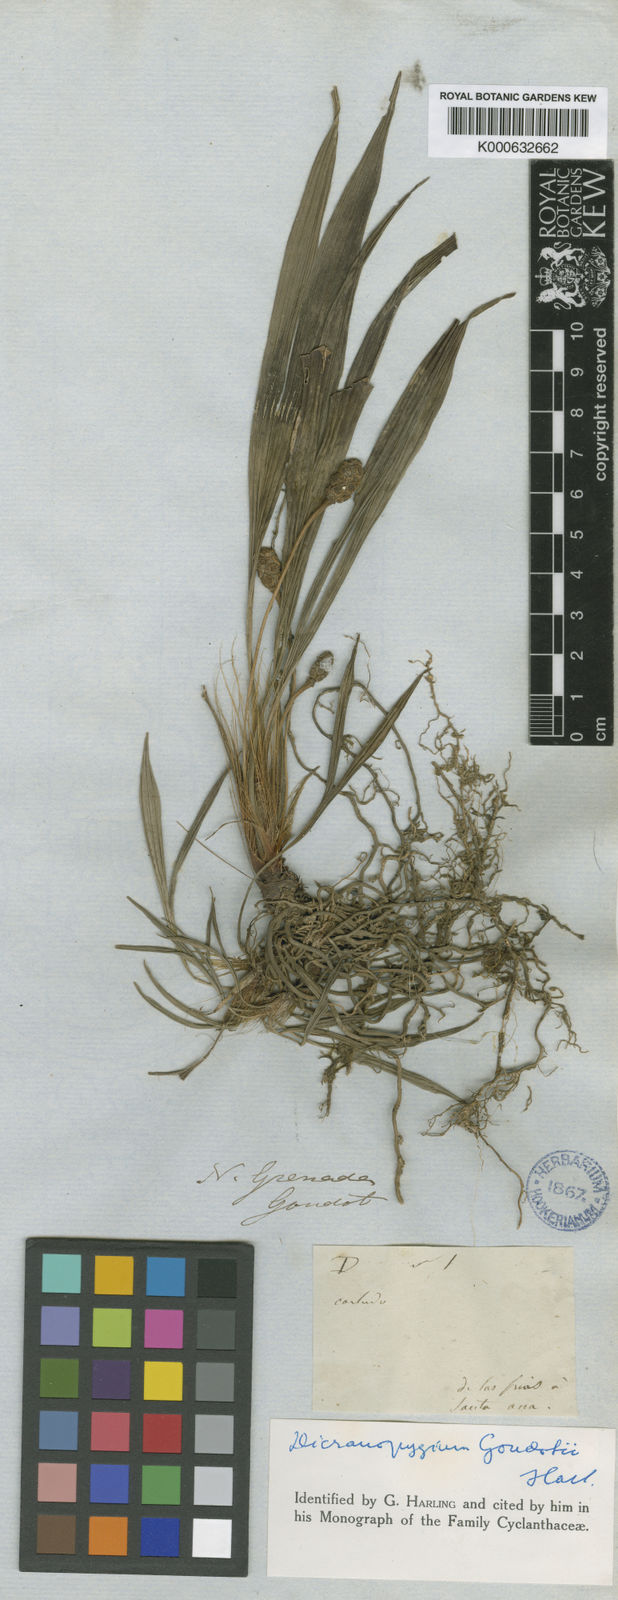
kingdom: Plantae
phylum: Tracheophyta
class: Liliopsida
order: Pandanales
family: Cyclanthaceae
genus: Dicranopygium
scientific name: Dicranopygium goudotii
